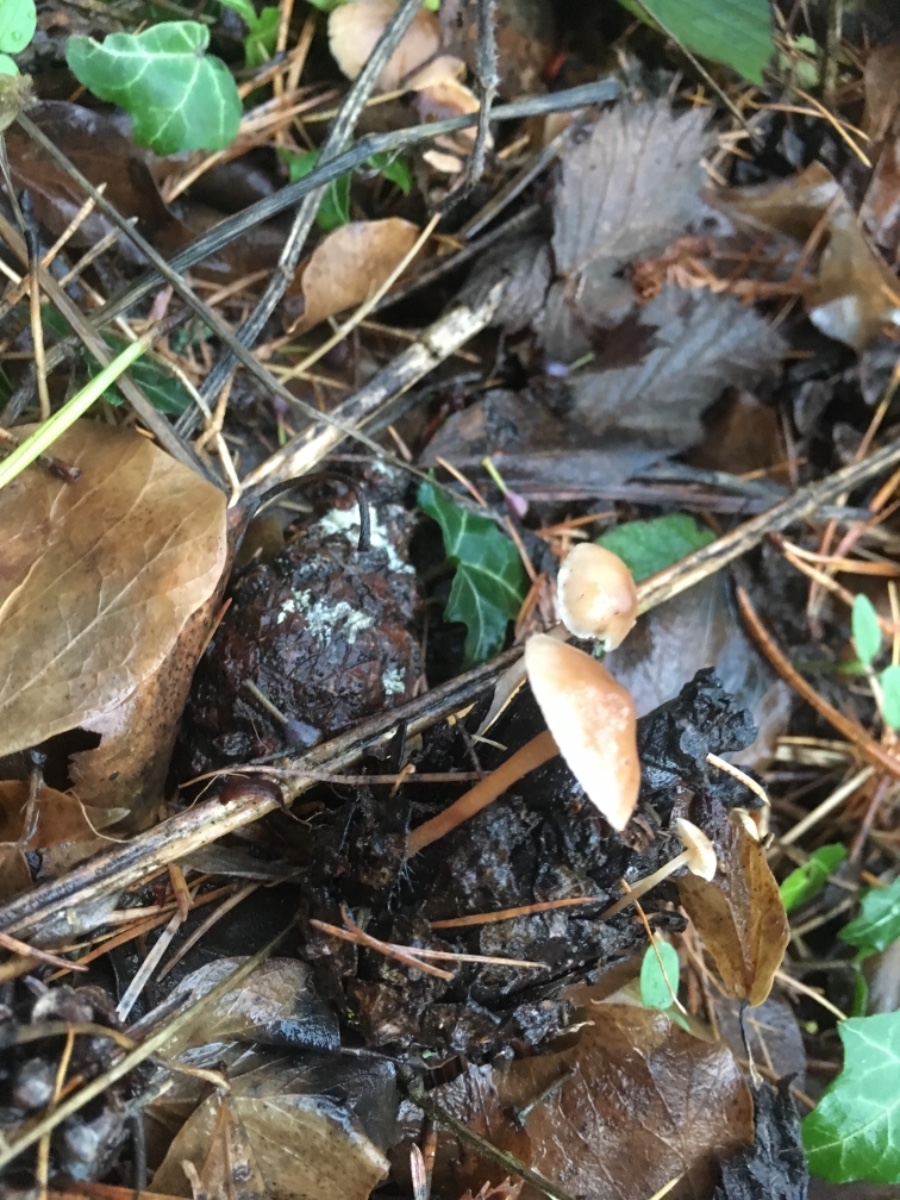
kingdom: Fungi
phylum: Basidiomycota
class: Agaricomycetes
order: Agaricales
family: Marasmiaceae
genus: Baeospora
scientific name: Baeospora myosura
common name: koglebruskhat
